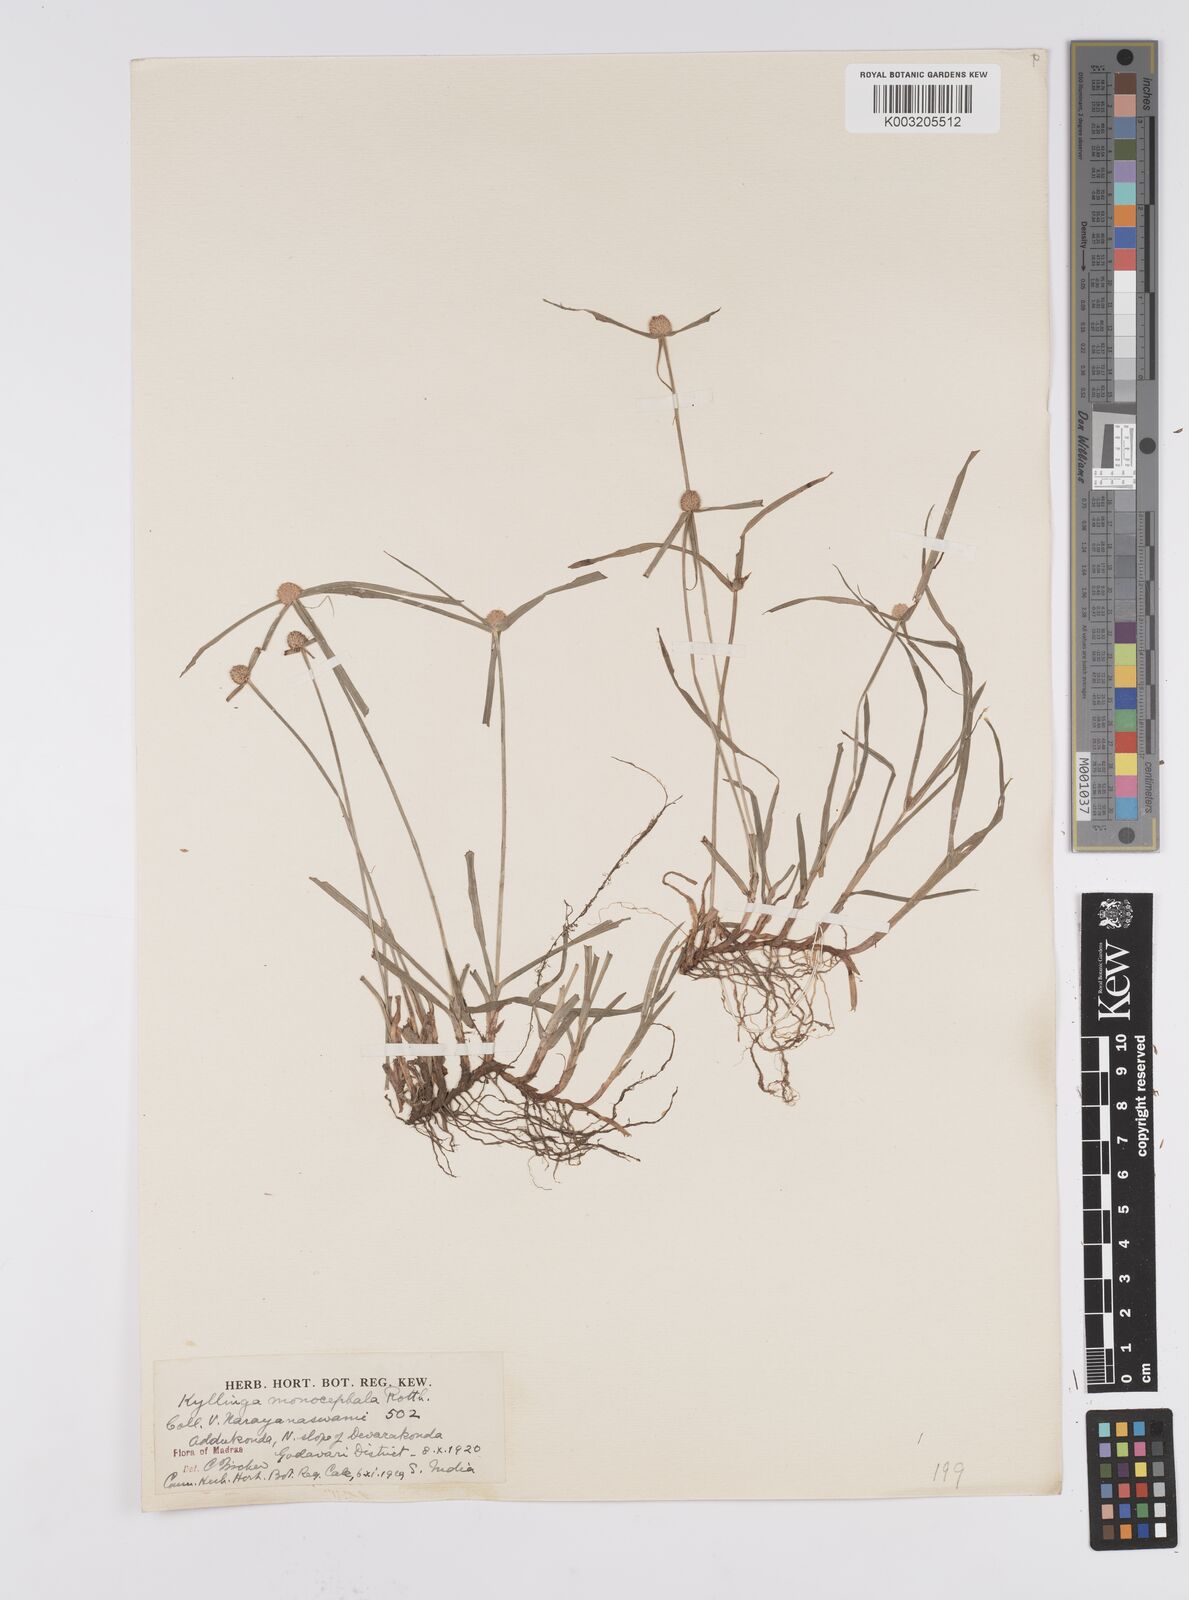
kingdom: Plantae
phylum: Tracheophyta
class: Liliopsida
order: Poales
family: Cyperaceae
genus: Cyperus
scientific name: Cyperus nemoralis
